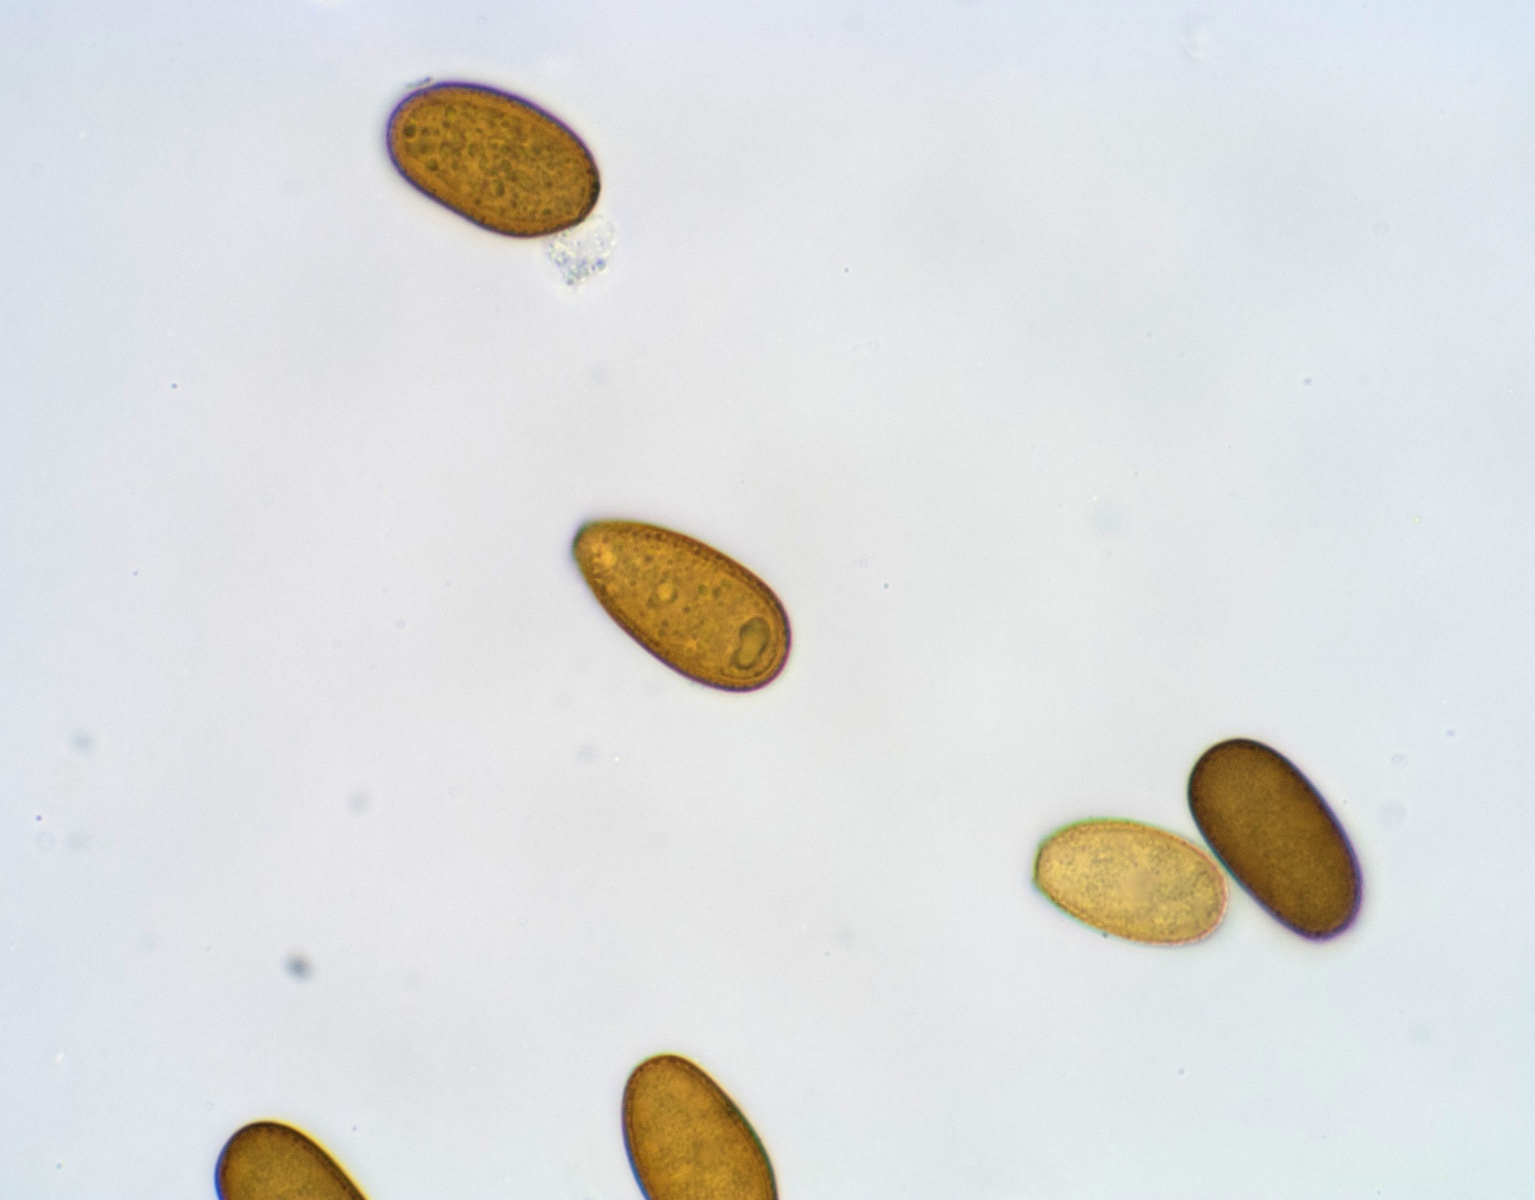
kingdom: Fungi
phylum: Ascomycota
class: Dothideomycetes
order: Botryosphaeriales
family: Botryosphaeriaceae
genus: Diplodia
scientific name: Diplodia
